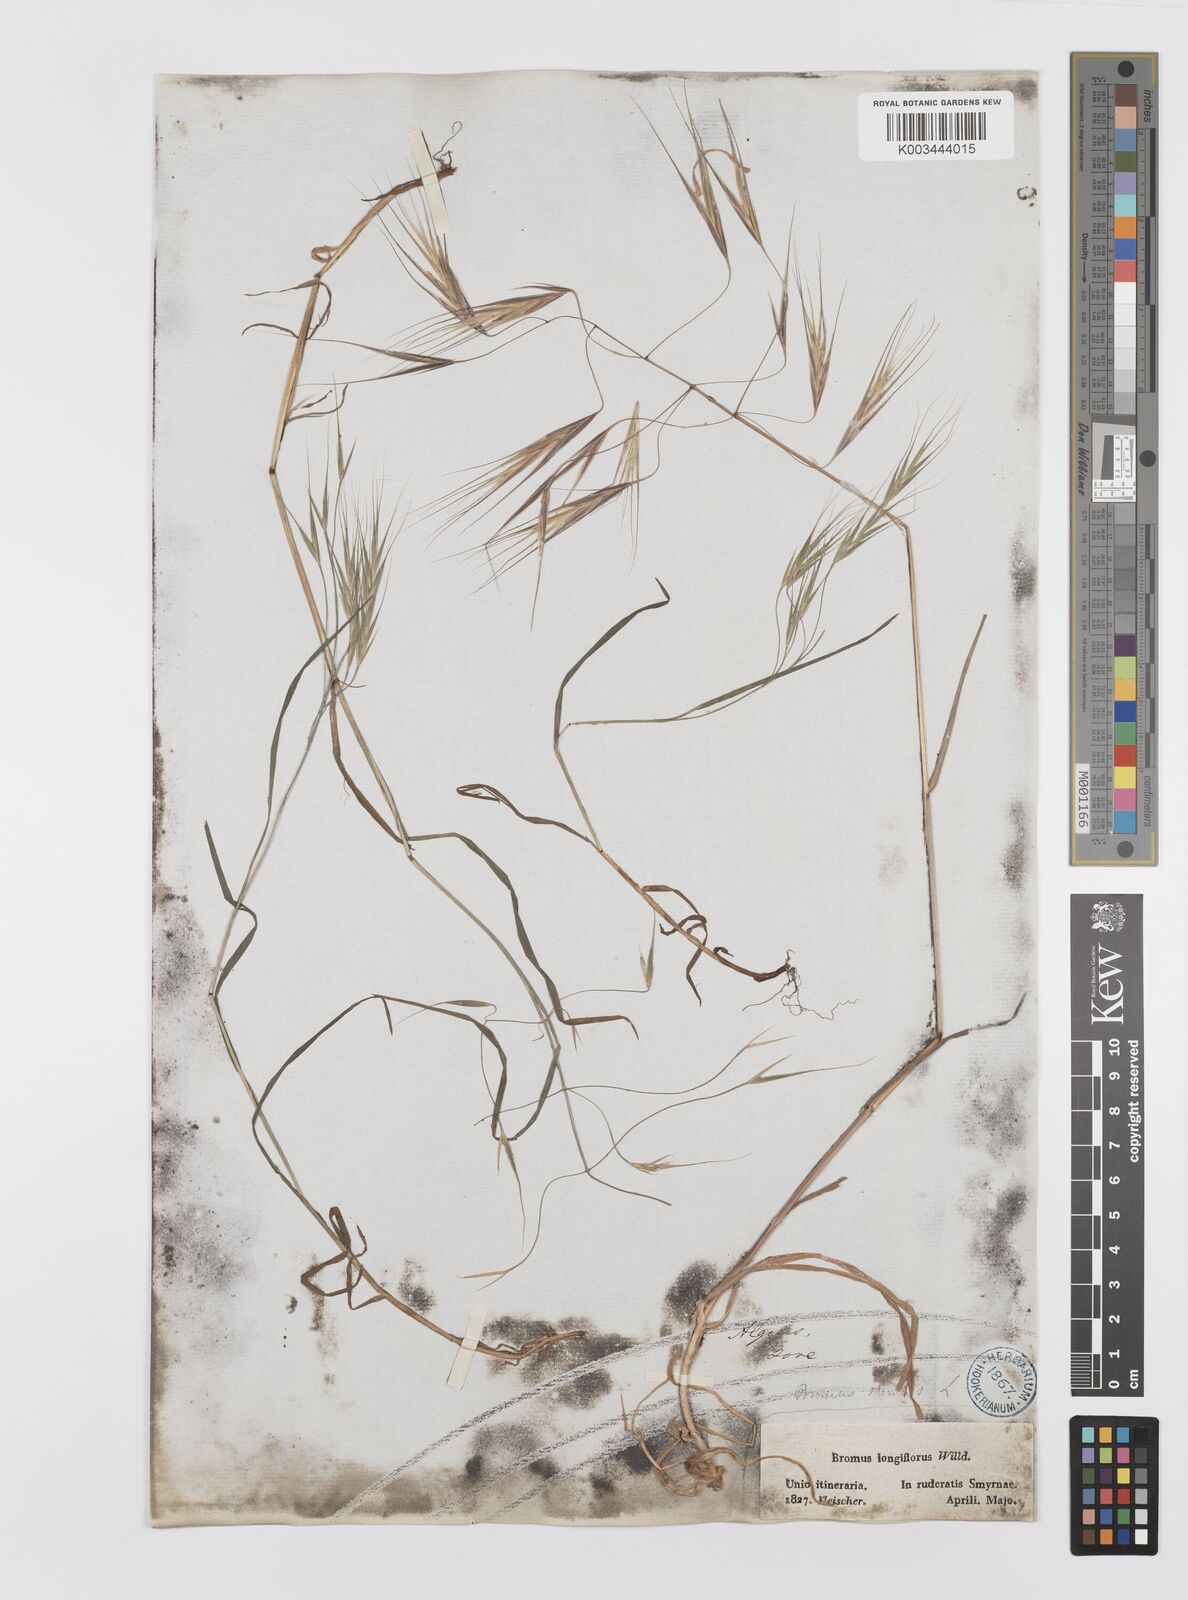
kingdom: Plantae
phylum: Tracheophyta
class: Liliopsida
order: Poales
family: Poaceae
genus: Bromus
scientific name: Bromus sterilis
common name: Poverty brome
